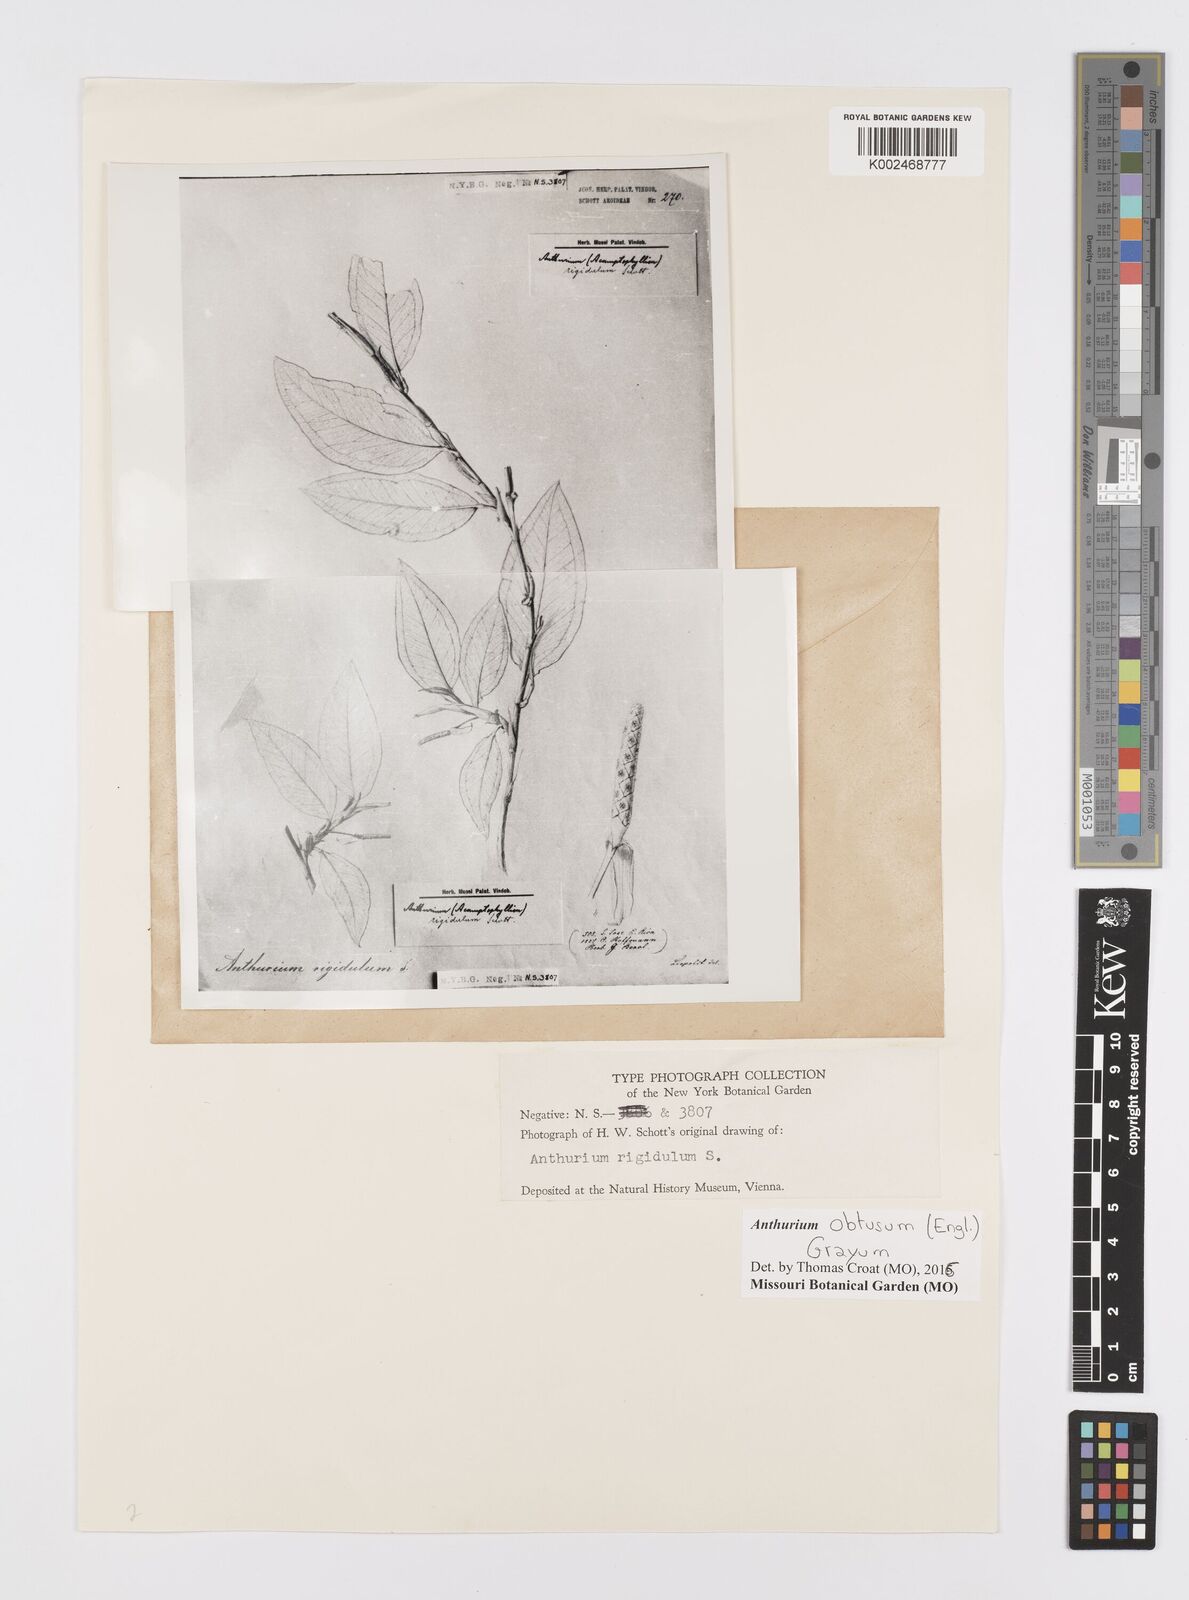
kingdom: Plantae
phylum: Tracheophyta
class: Liliopsida
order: Alismatales
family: Araceae
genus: Anthurium
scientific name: Anthurium obtusum
